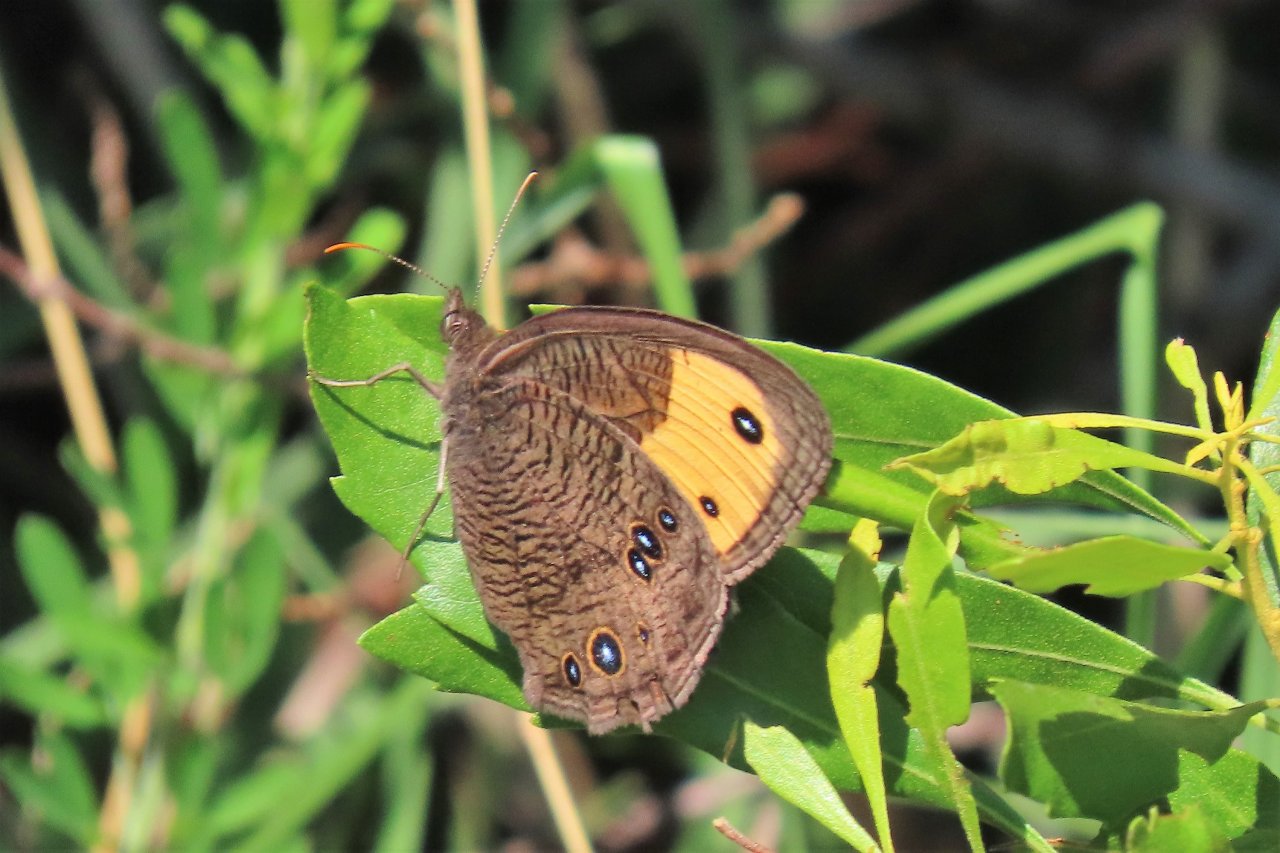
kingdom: Animalia
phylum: Arthropoda
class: Insecta
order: Lepidoptera
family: Nymphalidae
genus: Cercyonis
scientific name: Cercyonis pegala
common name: Common Wood-Nymph
